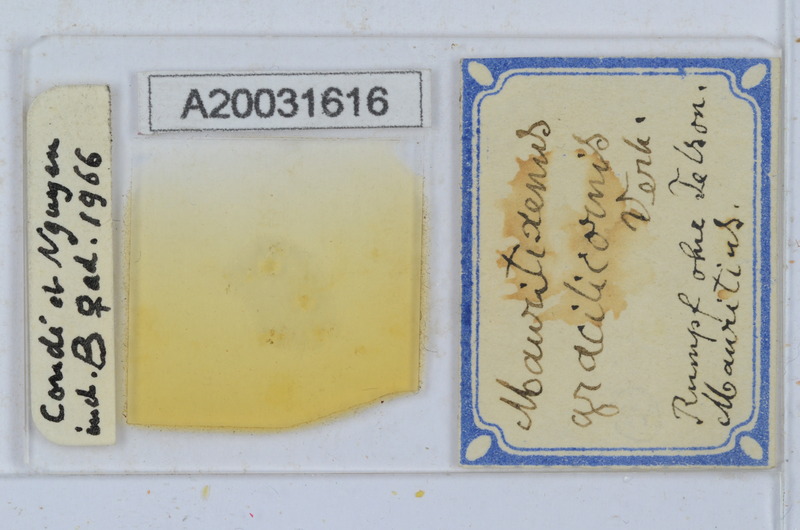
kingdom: Animalia
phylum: Arthropoda
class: Diplopoda
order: Polyxenida
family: Polyxenidae
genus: Mauritixenus
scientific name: Mauritixenus gracilicornis
